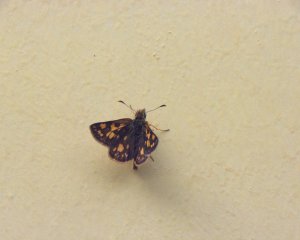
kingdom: Animalia
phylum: Arthropoda
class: Insecta
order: Lepidoptera
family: Hesperiidae
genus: Carterocephalus
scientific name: Carterocephalus palaemon
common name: Chequered Skipper
